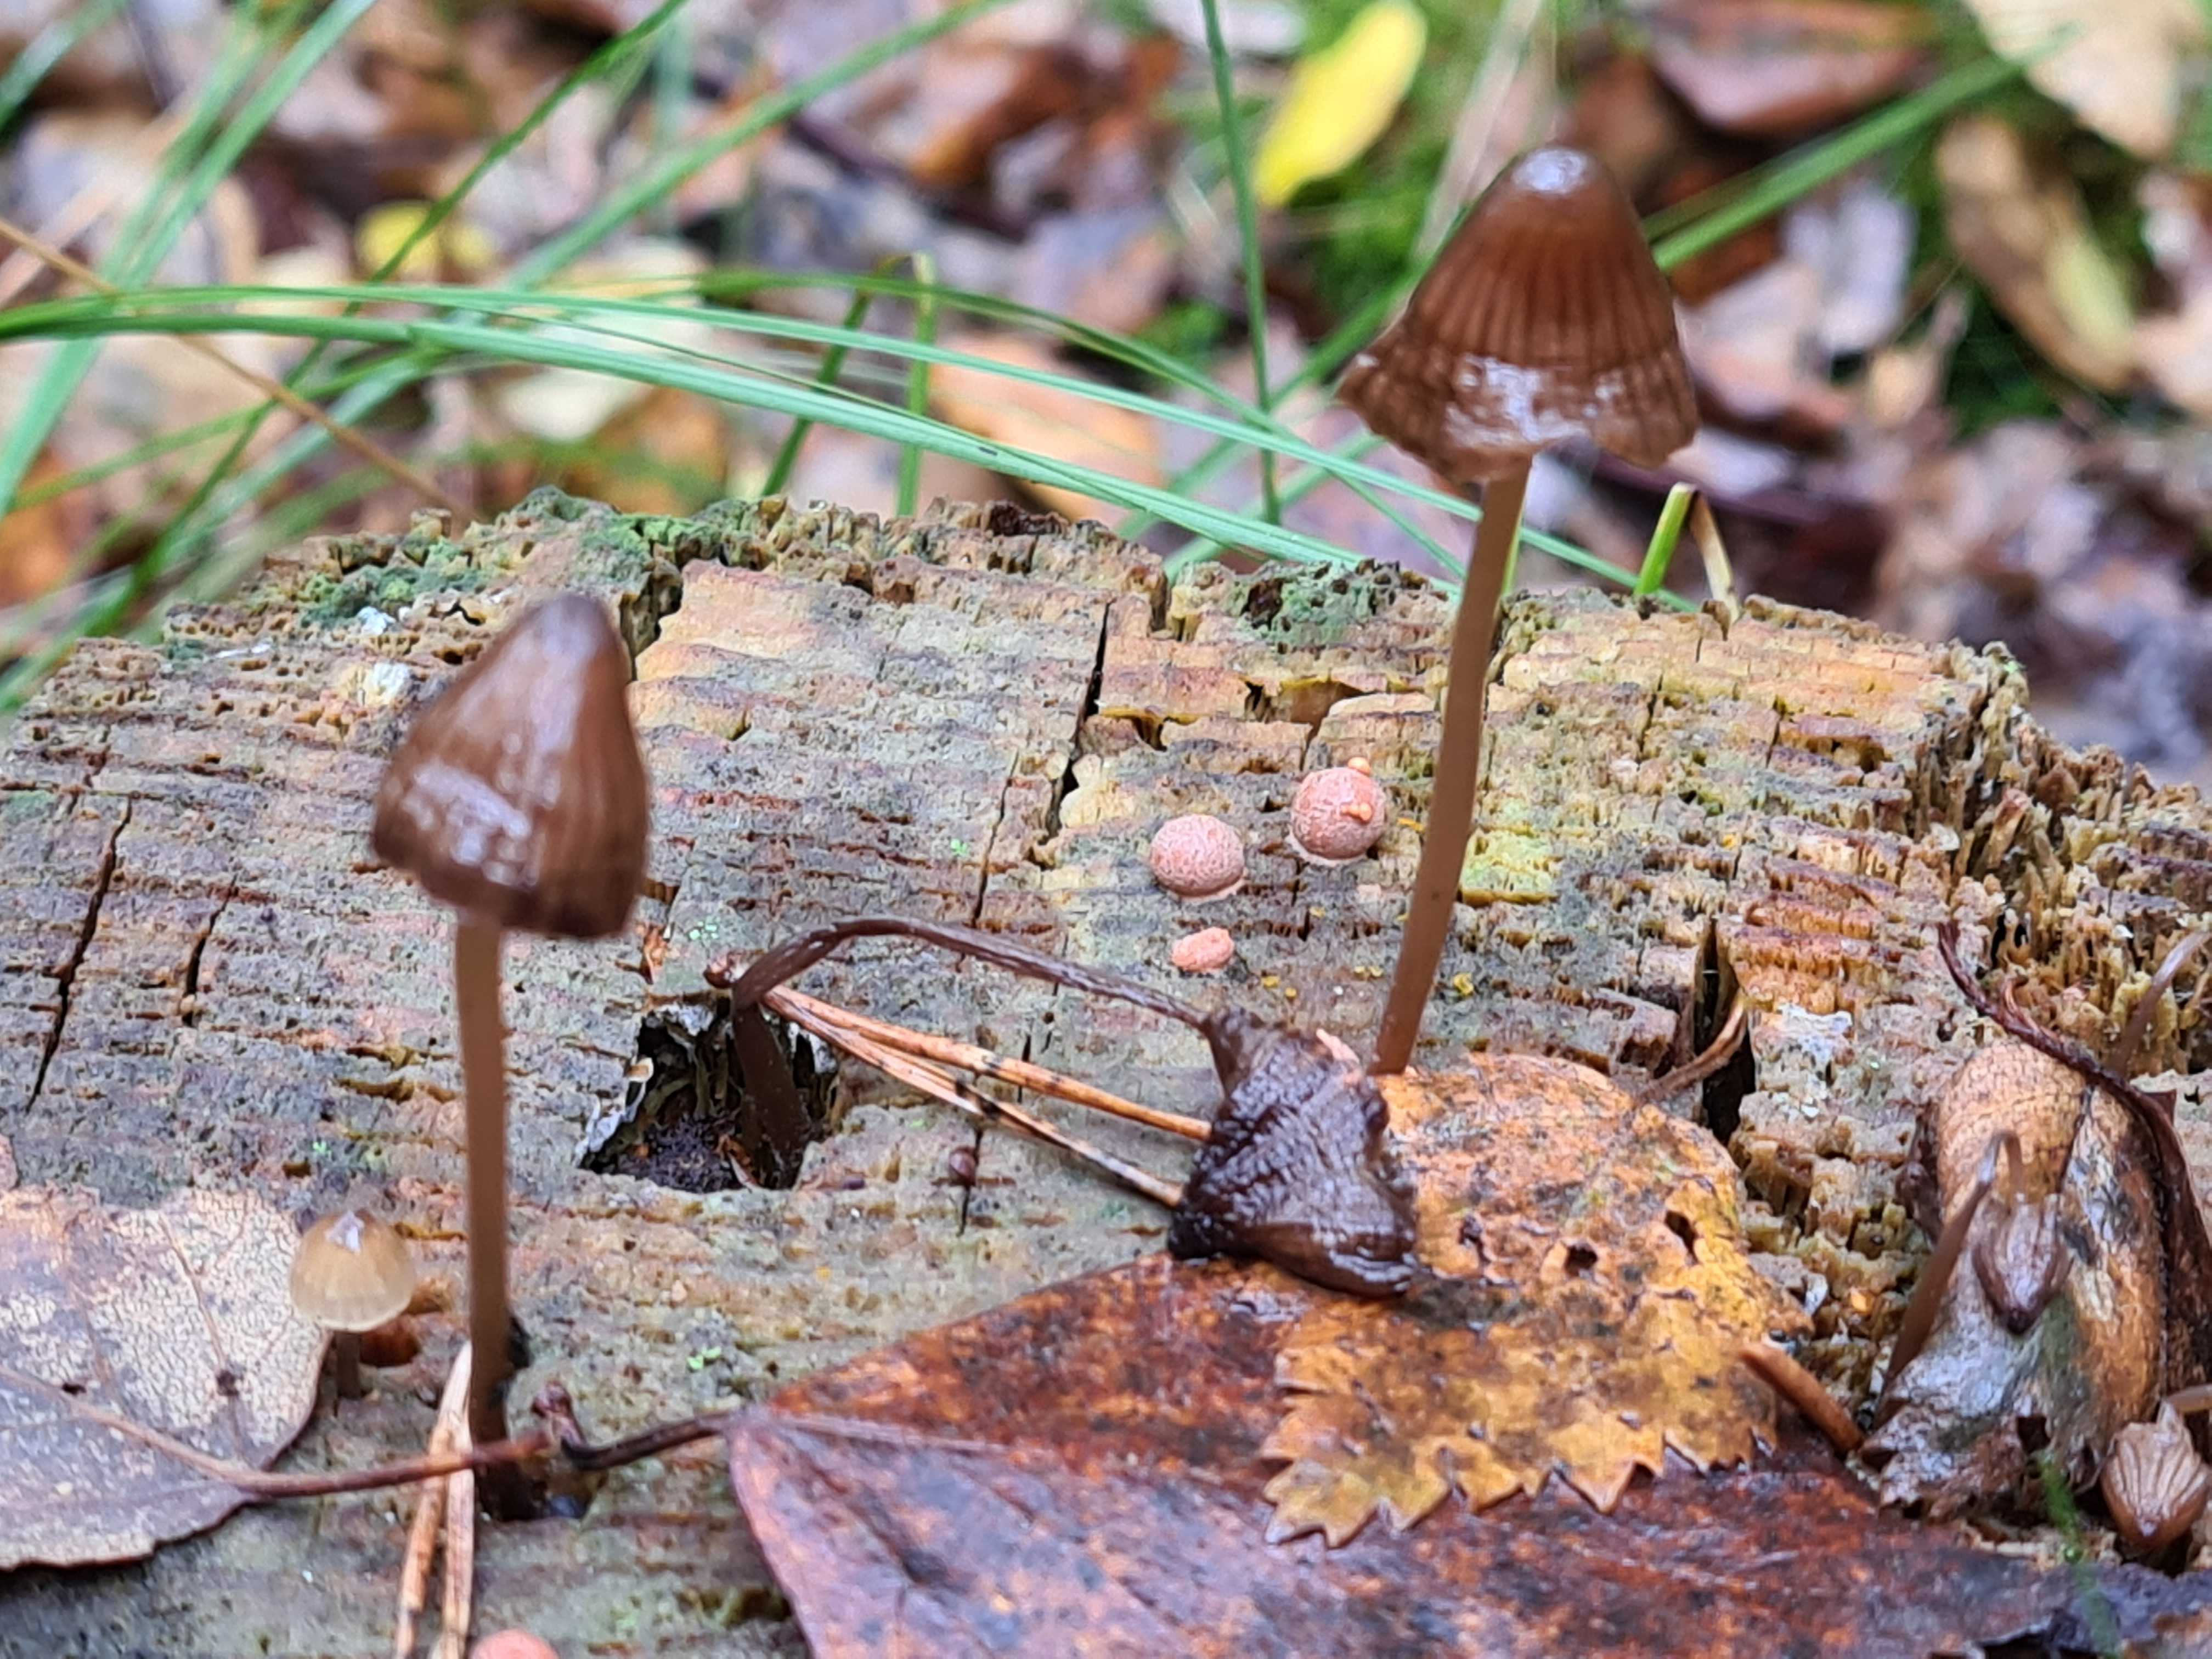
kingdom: Fungi
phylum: Basidiomycota
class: Agaricomycetes
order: Agaricales
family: Mycenaceae
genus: Mycena
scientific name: Mycena stipata
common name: stinkende huesvamp
